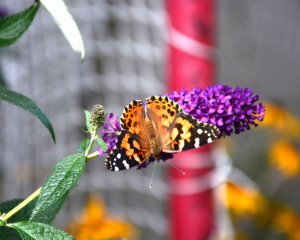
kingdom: Animalia
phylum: Arthropoda
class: Insecta
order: Lepidoptera
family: Nymphalidae
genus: Vanessa
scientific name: Vanessa virginiensis
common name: American Lady
